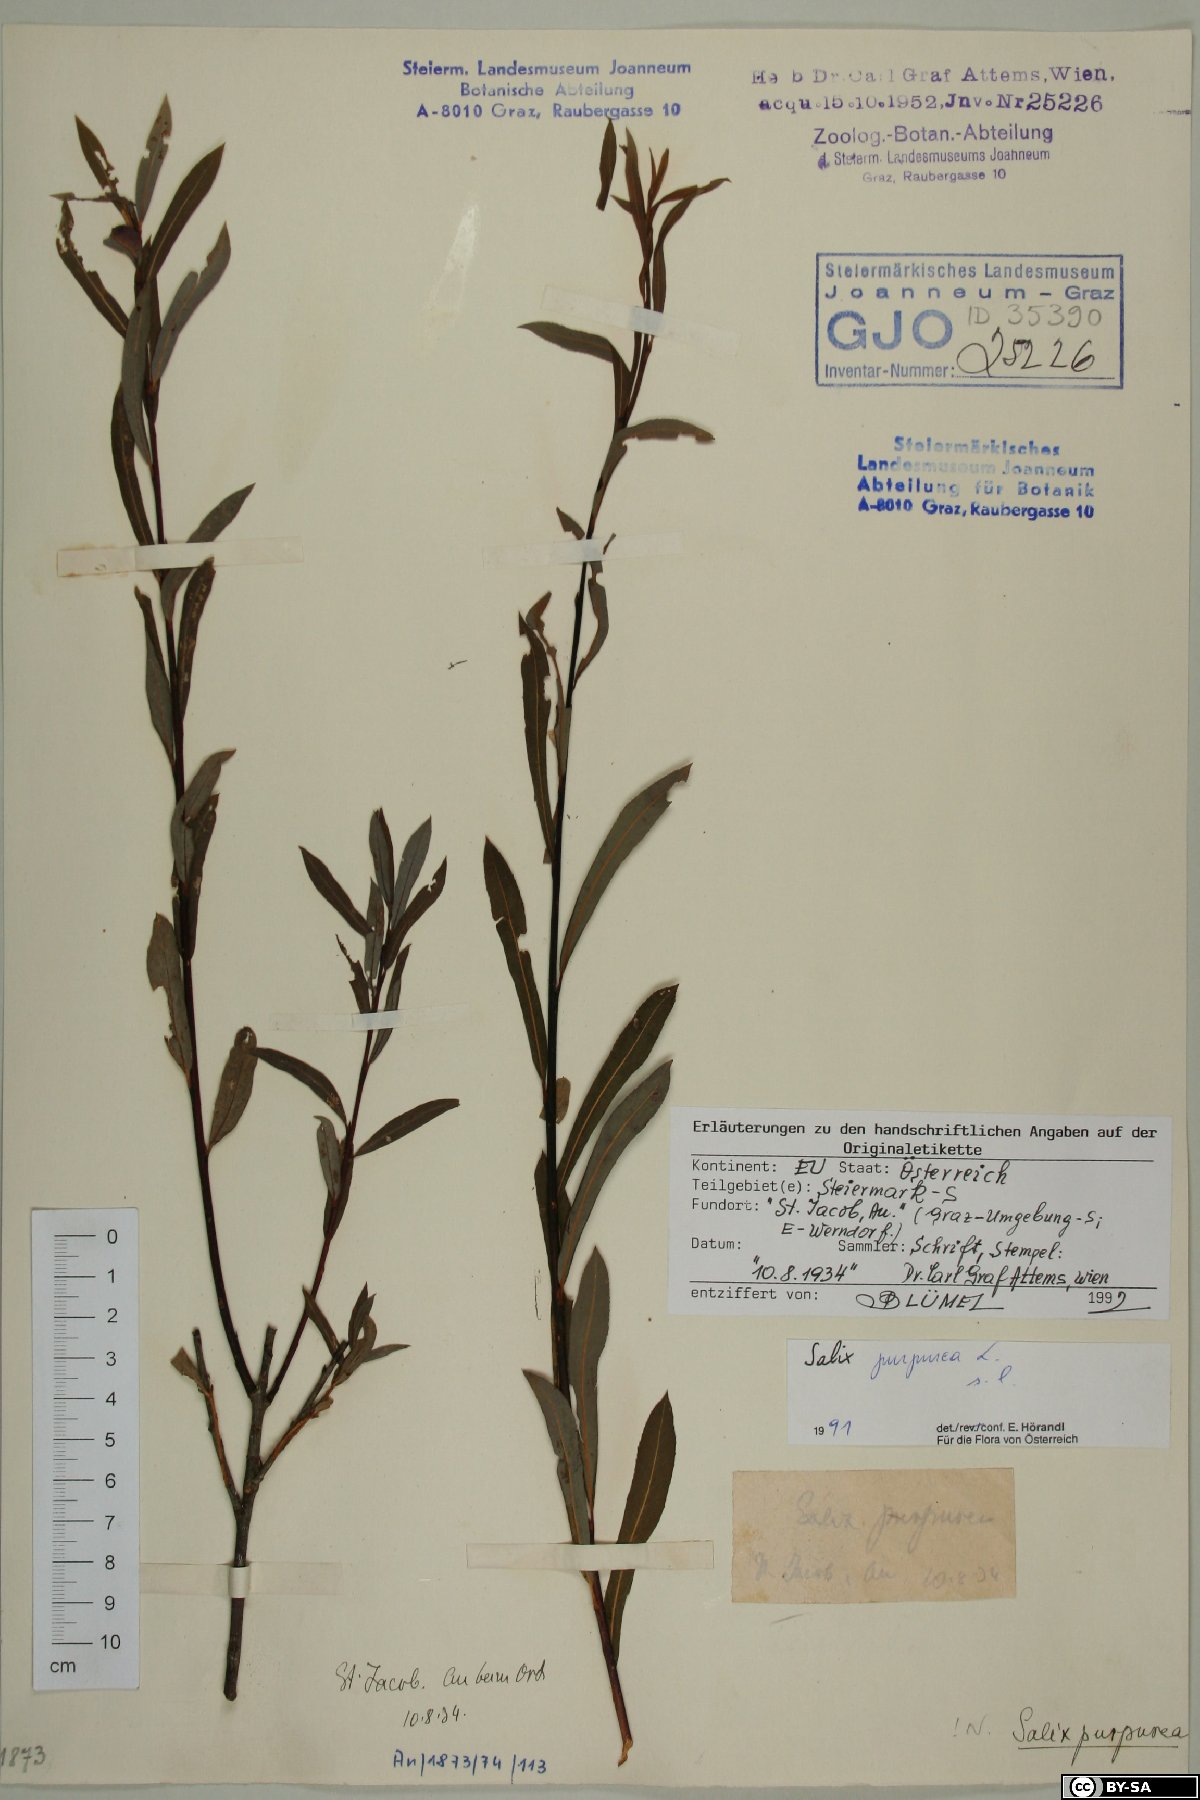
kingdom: Plantae
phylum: Tracheophyta
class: Magnoliopsida
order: Malpighiales
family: Salicaceae
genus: Salix
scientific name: Salix purpurea
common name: Purple willow
